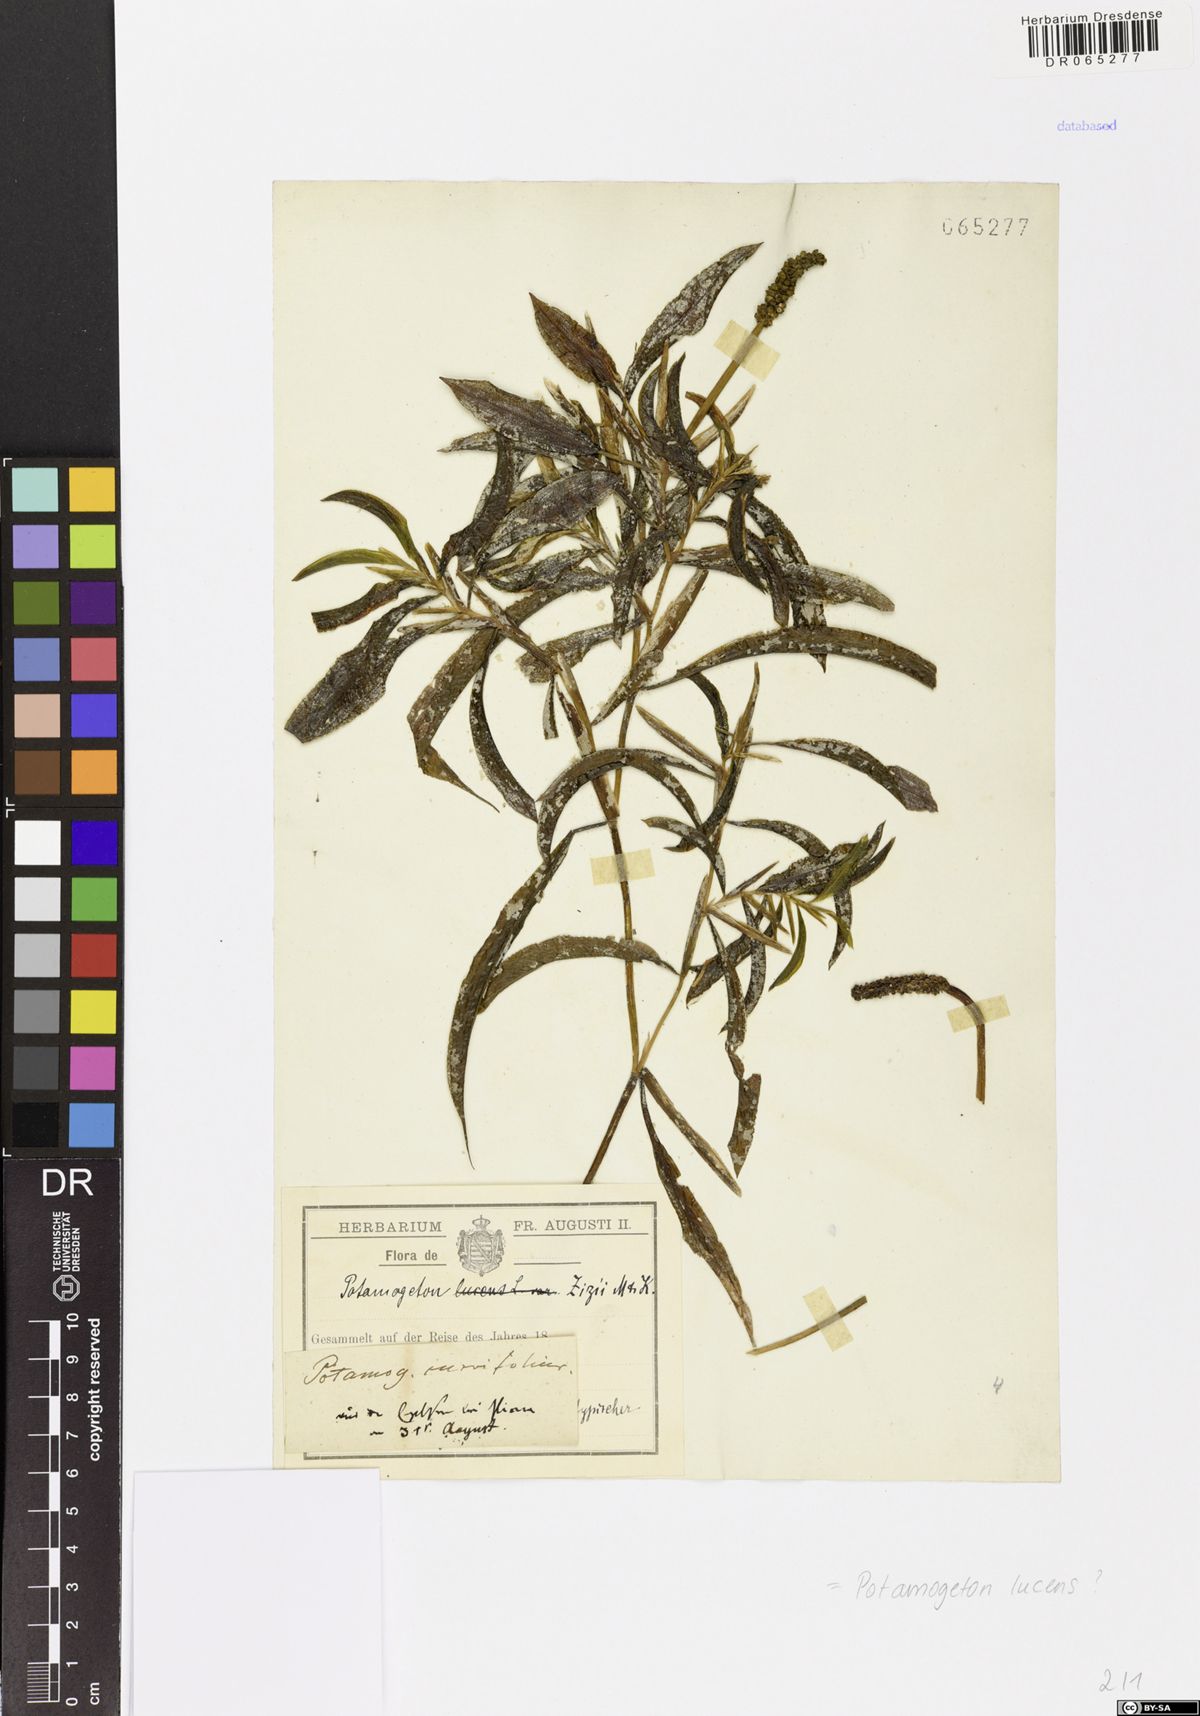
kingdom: Plantae
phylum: Tracheophyta
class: Liliopsida
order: Alismatales
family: Potamogetonaceae
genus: Potamogeton
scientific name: Potamogeton lucens
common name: Shining pondweed
